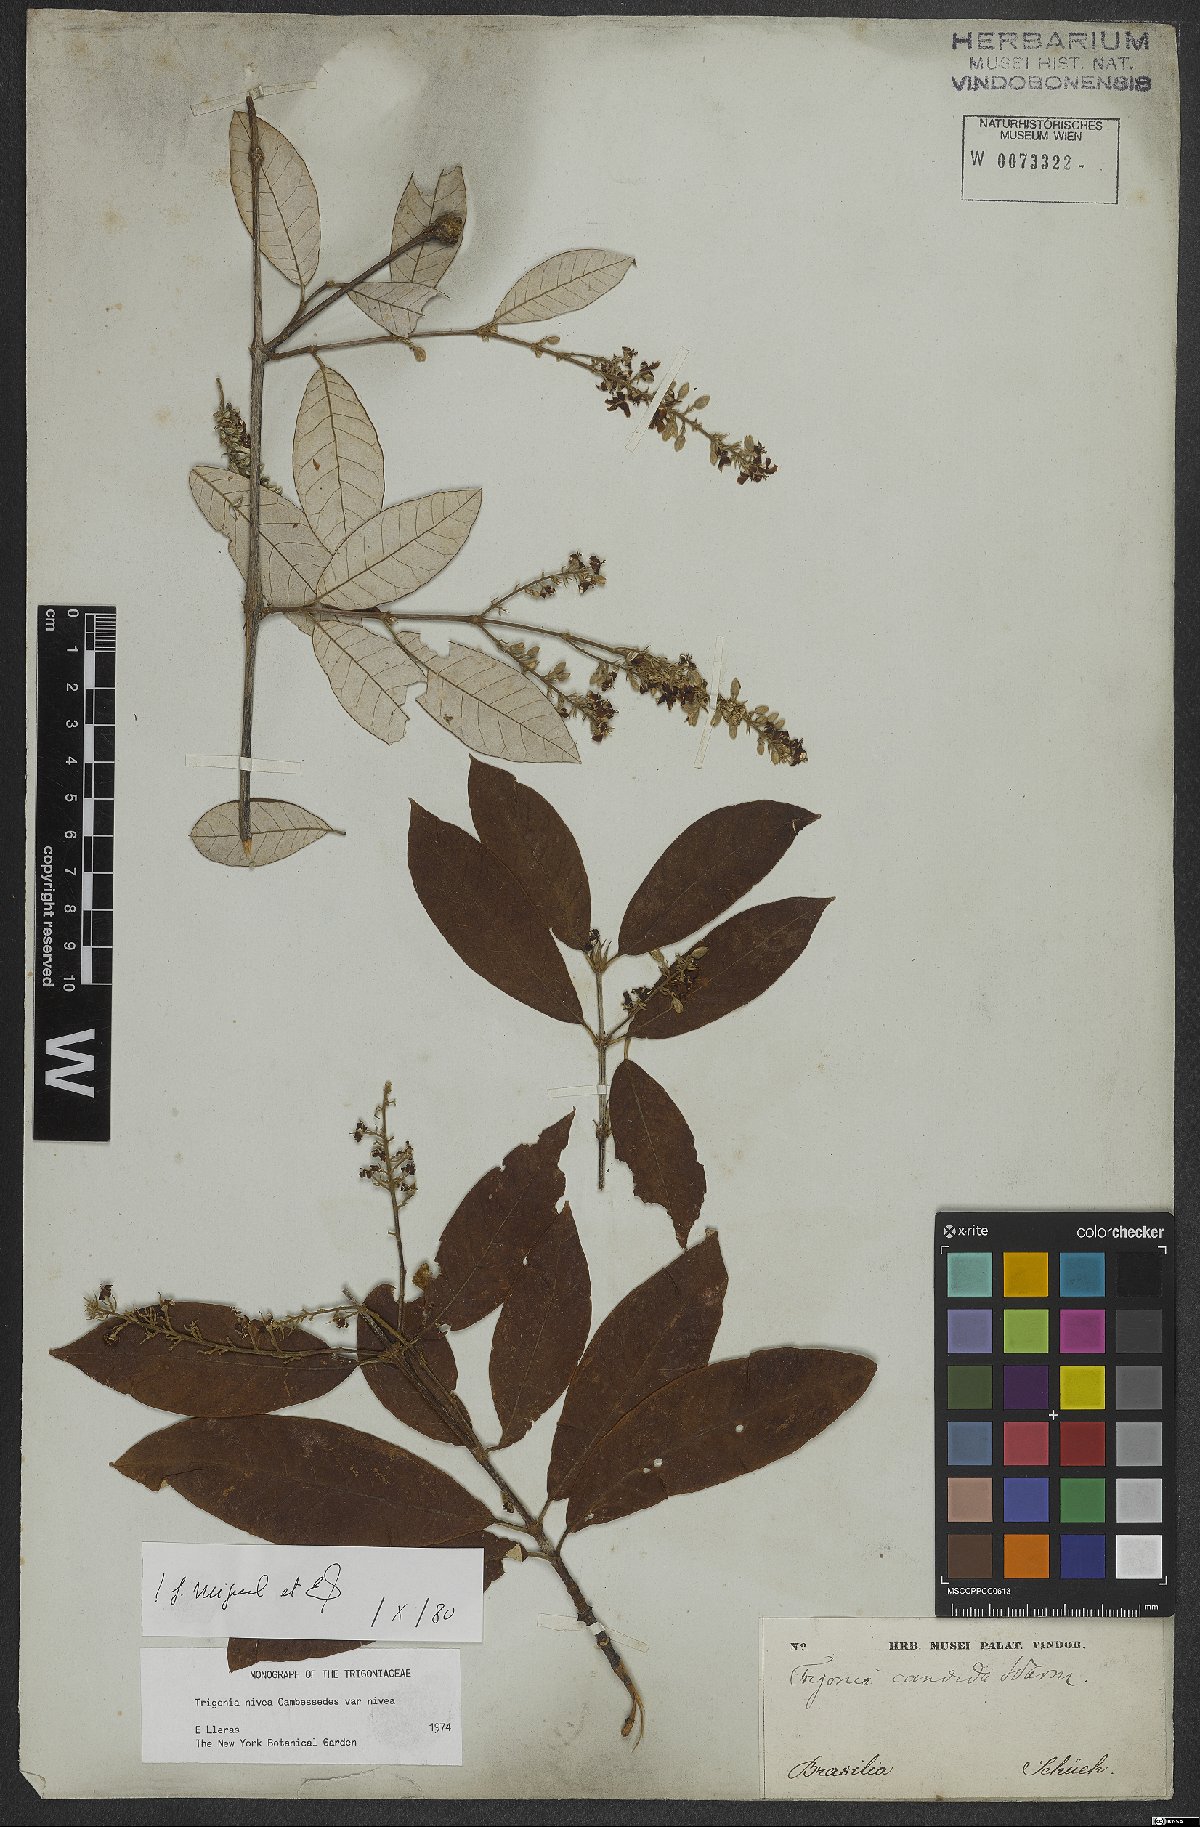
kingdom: Plantae
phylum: Tracheophyta
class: Magnoliopsida
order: Malpighiales
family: Trigoniaceae
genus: Trigonia
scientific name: Trigonia nivea
